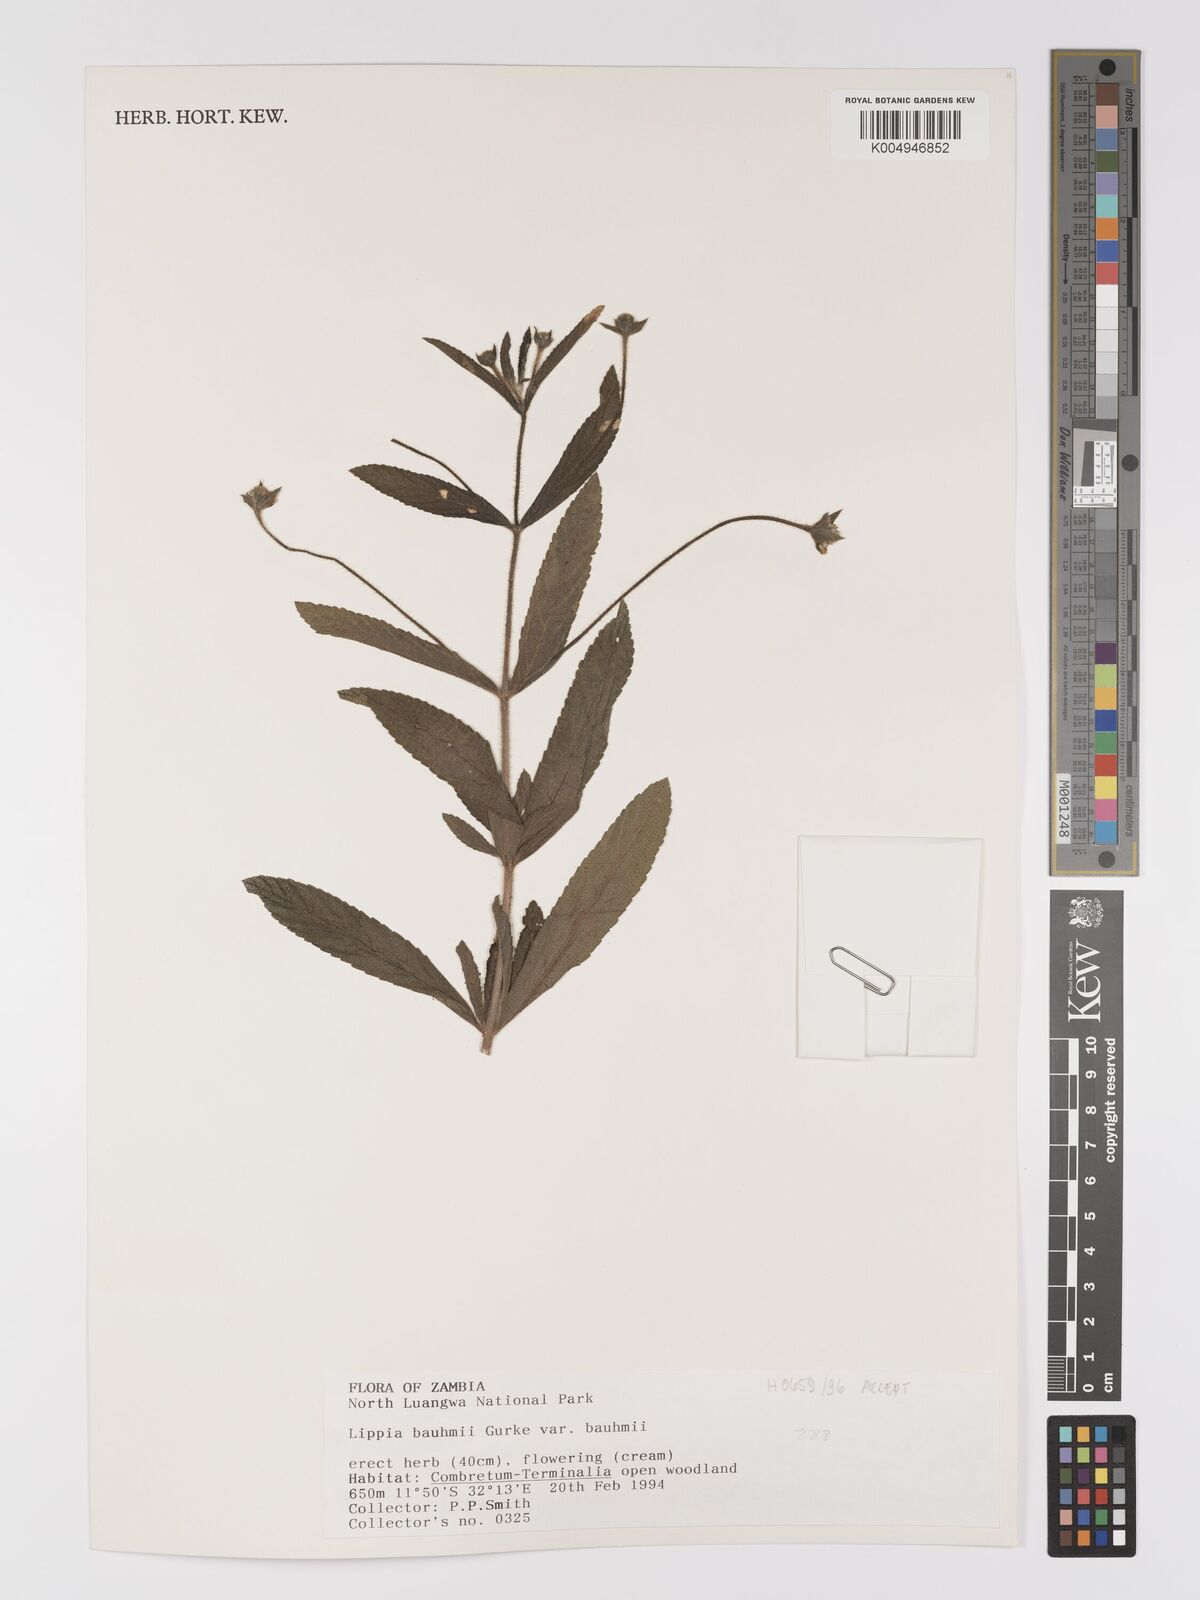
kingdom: Plantae
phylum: Tracheophyta
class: Magnoliopsida
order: Lamiales
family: Verbenaceae
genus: Lippia
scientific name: Lippia baumii
